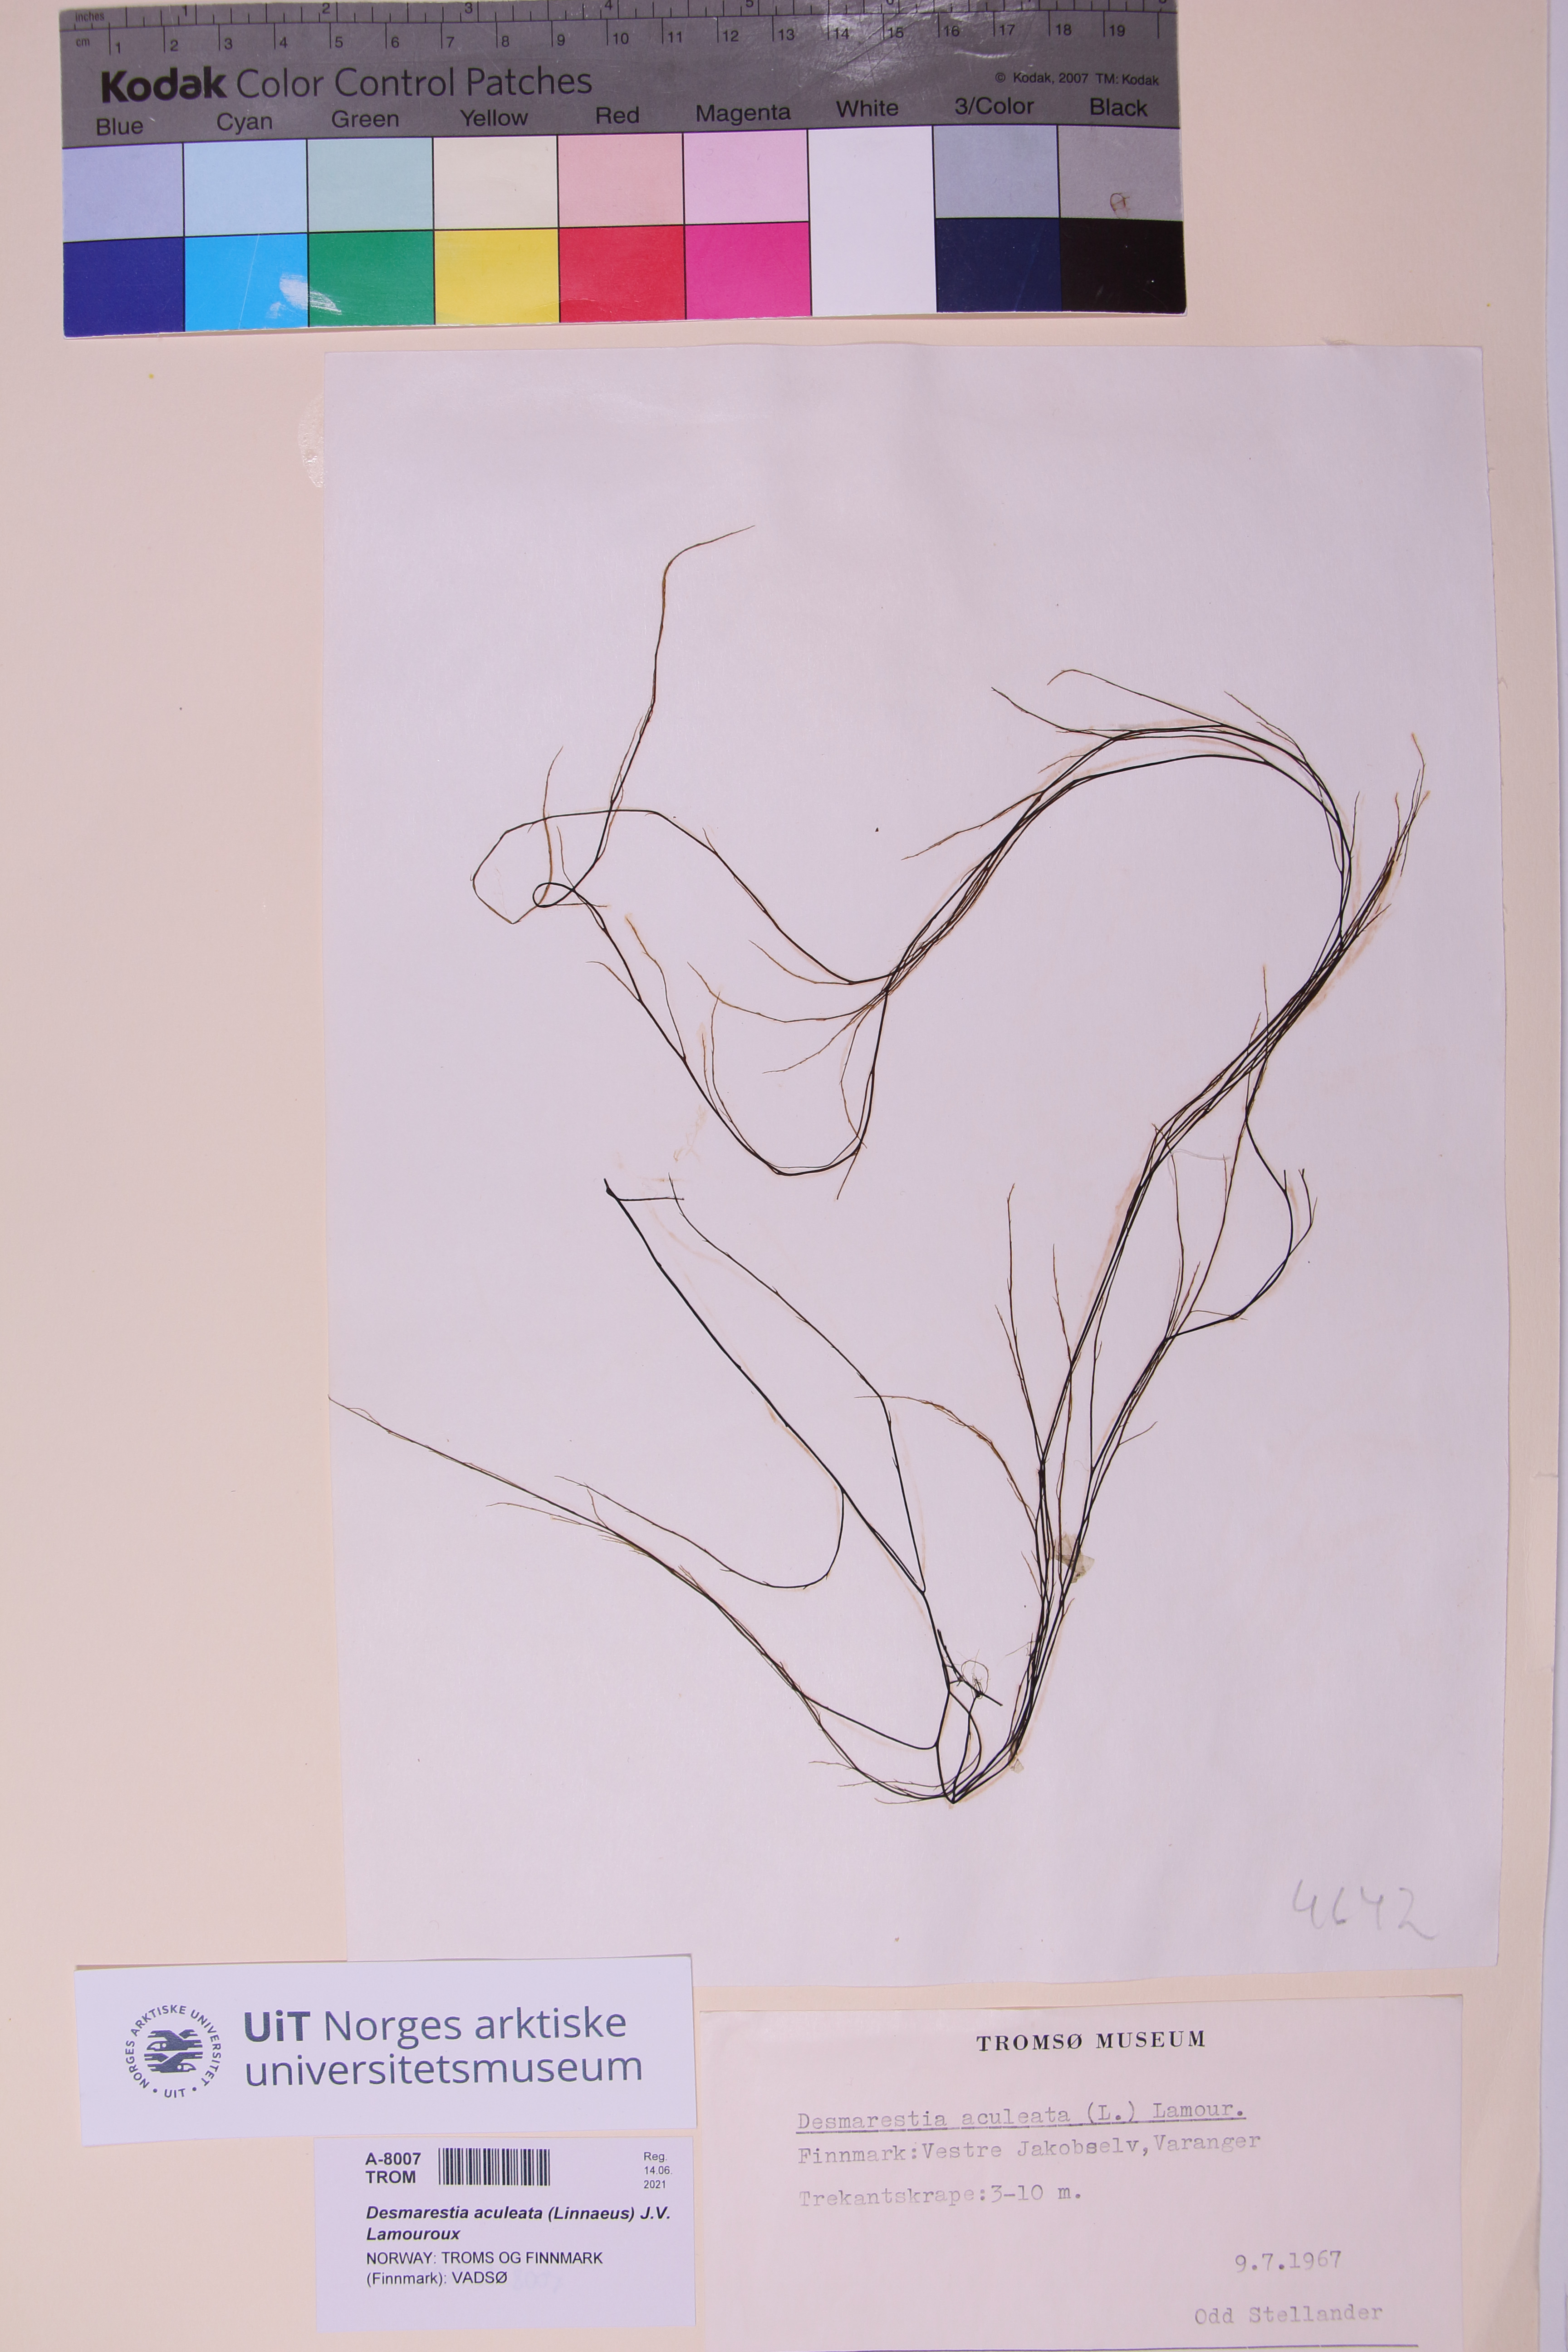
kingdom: Chromista
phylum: Ochrophyta
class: Phaeophyceae
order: Desmarestiales
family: Desmarestiaceae
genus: Desmarestia
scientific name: Desmarestia aculeata
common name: Witch's hair
